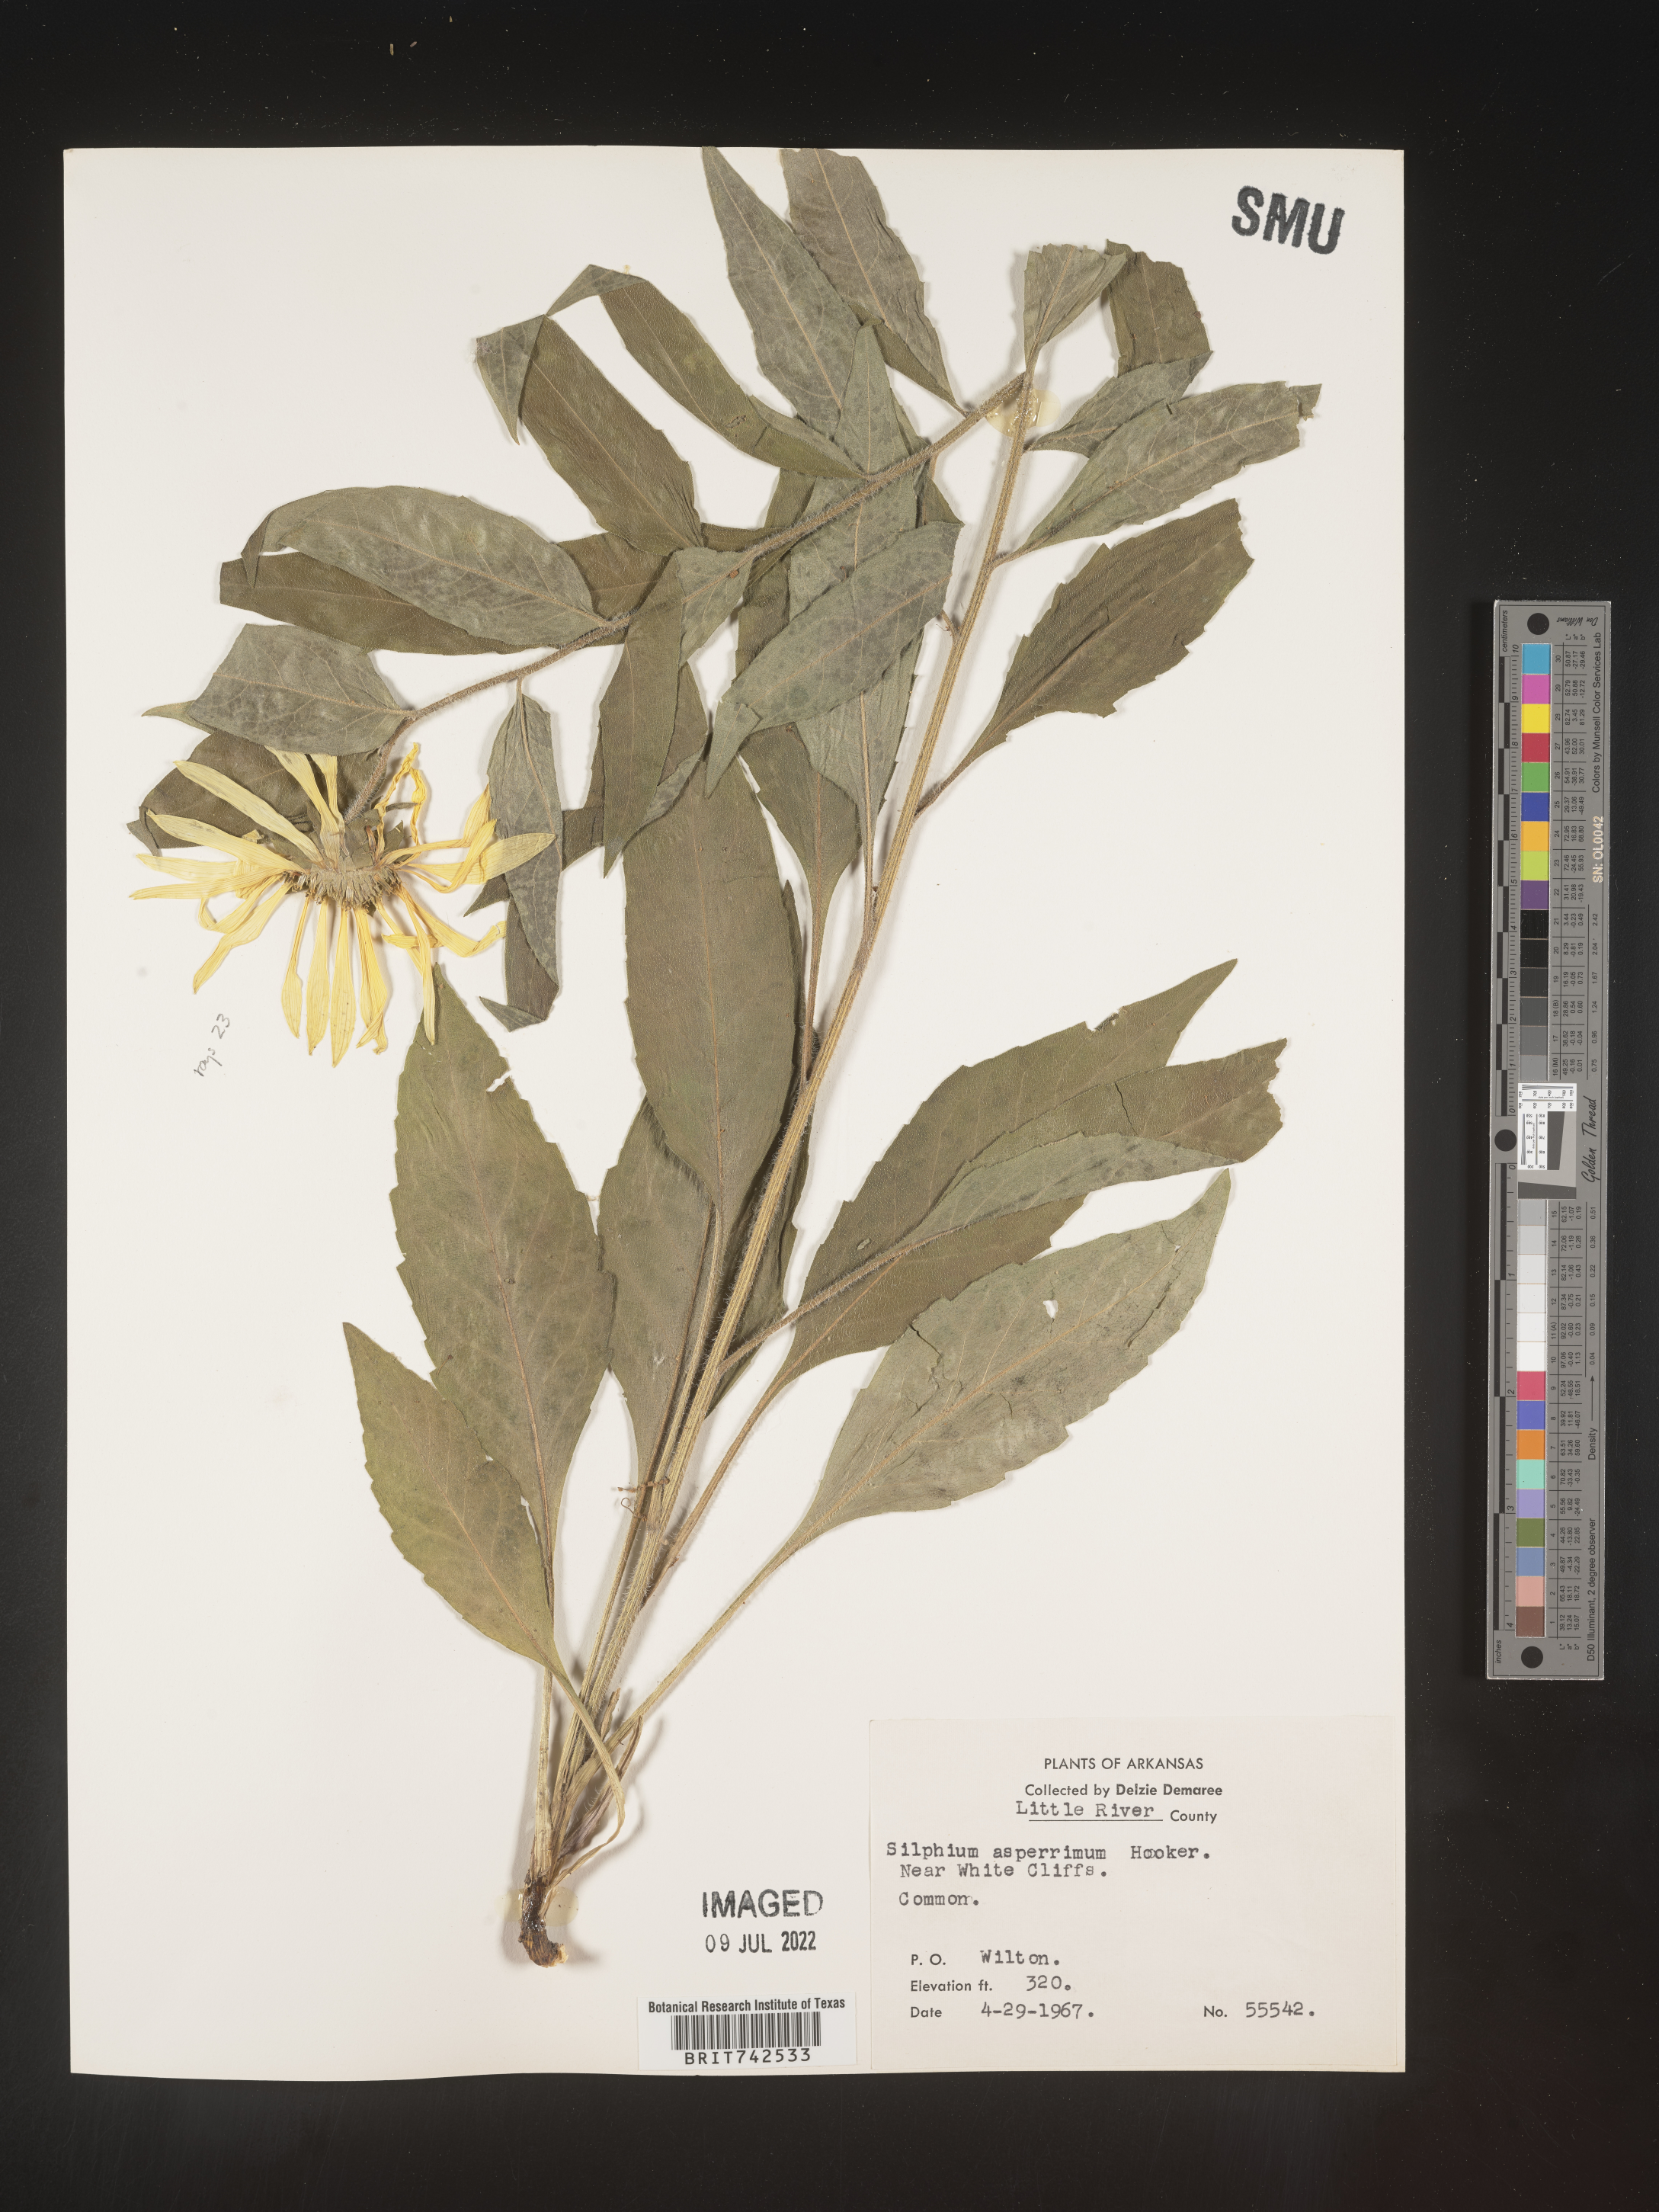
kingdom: Plantae
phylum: Tracheophyta
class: Magnoliopsida
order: Asterales
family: Asteraceae
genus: Silphium
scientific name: Silphium radula
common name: Roughleaf rosinweed
